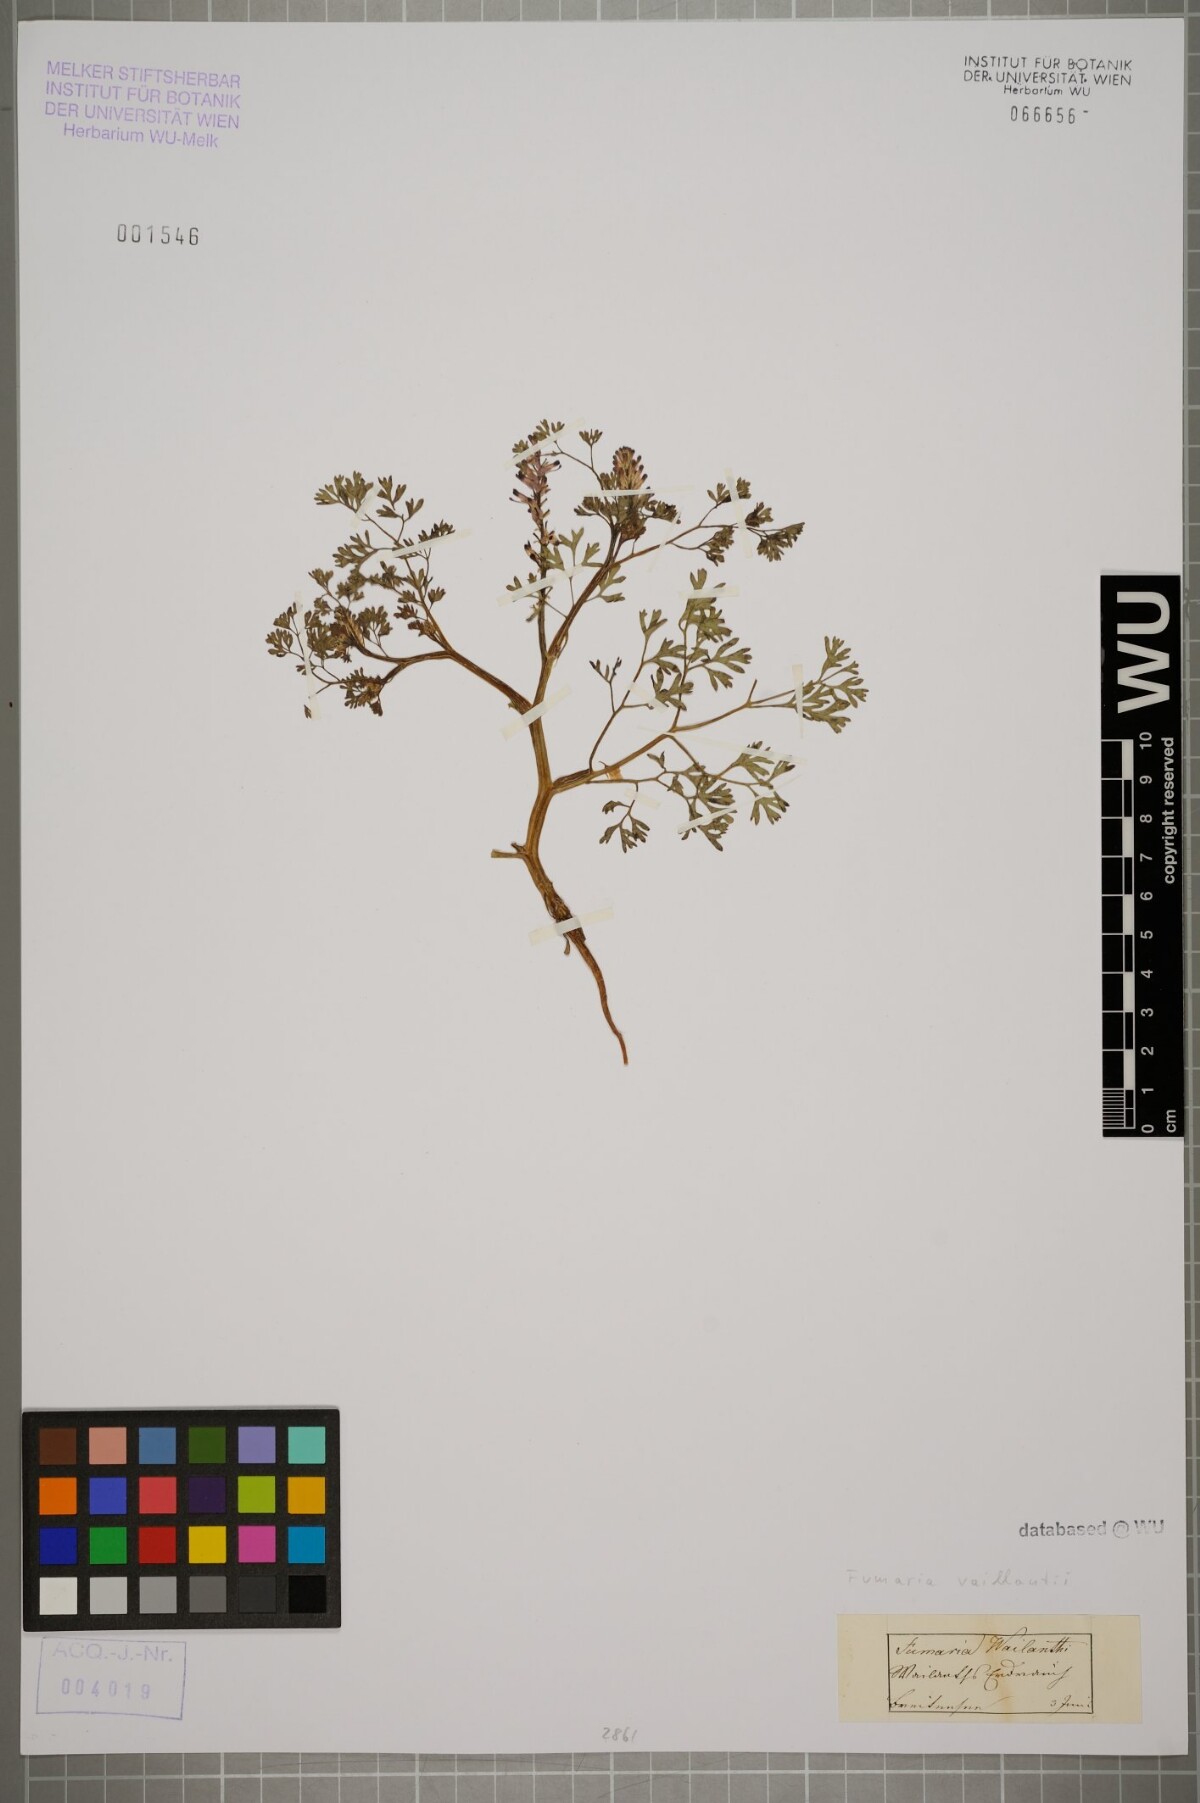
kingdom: Plantae
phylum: Tracheophyta
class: Magnoliopsida
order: Ranunculales
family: Papaveraceae
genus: Fumaria
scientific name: Fumaria vaillantii
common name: Few-flowered fumitory
